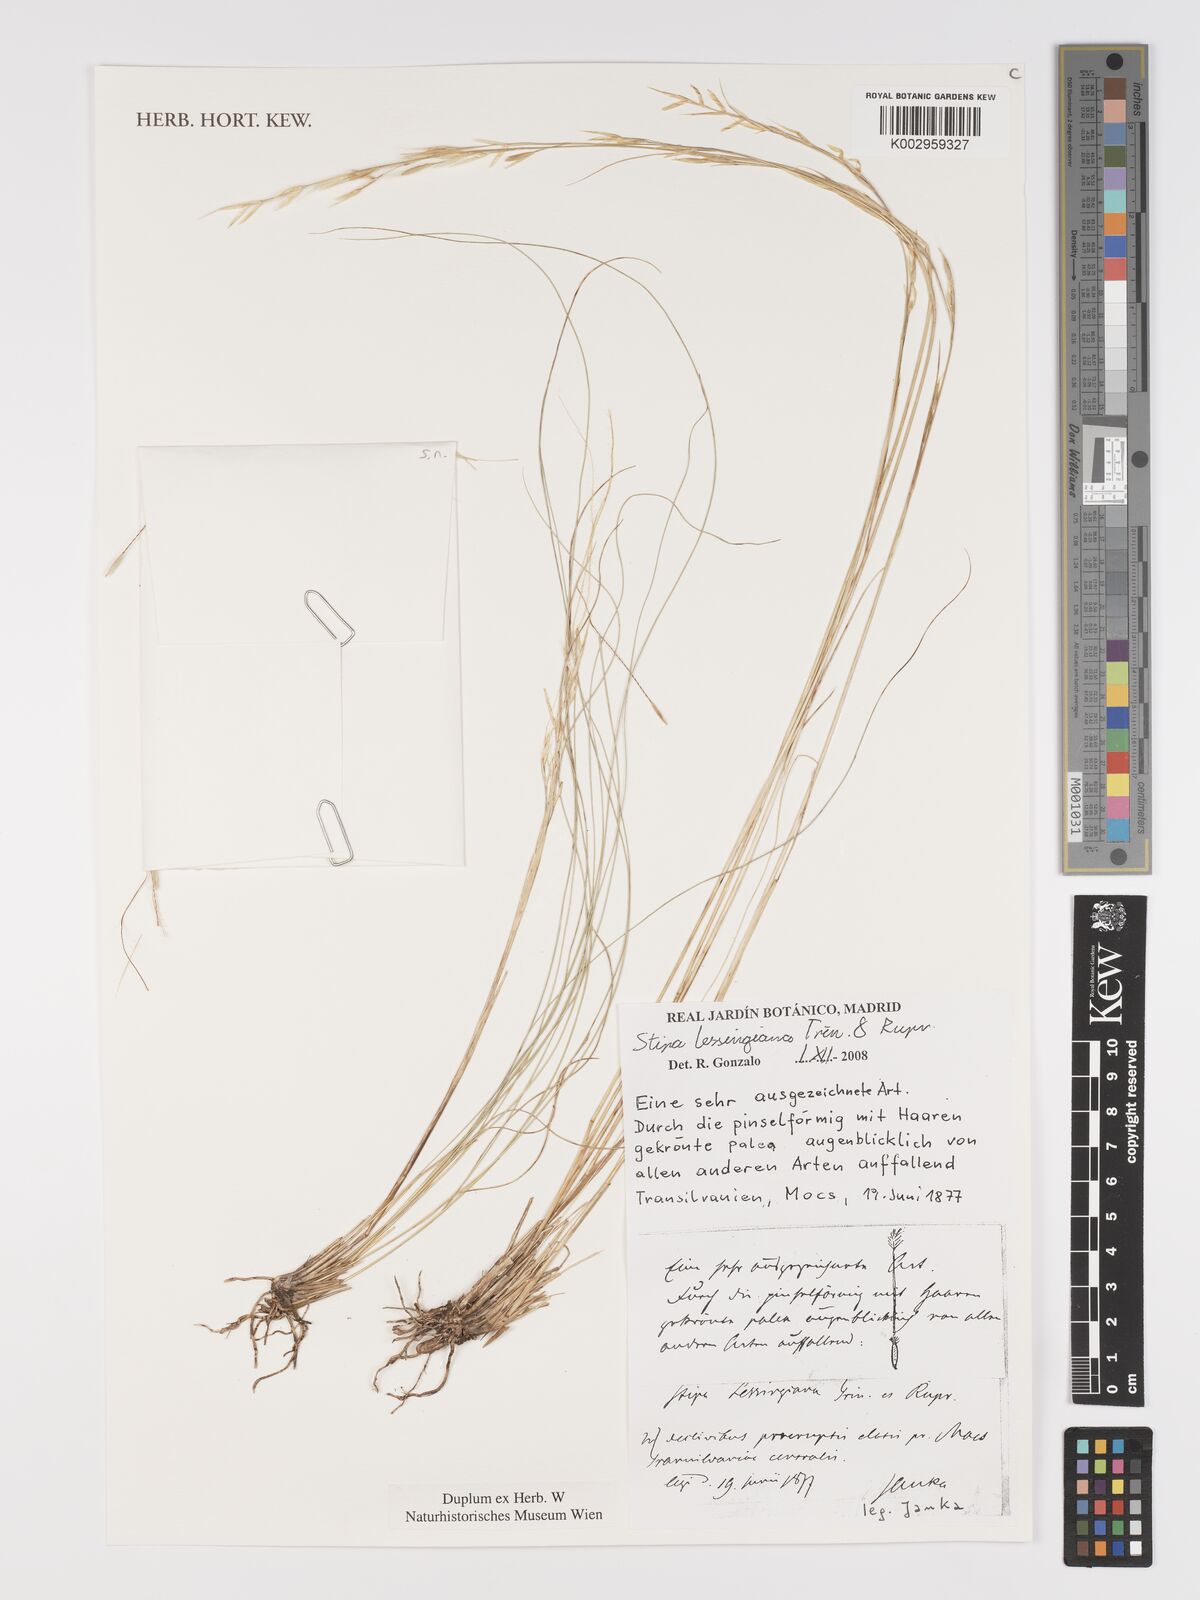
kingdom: Plantae
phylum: Tracheophyta
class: Liliopsida
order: Poales
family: Poaceae
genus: Stipa
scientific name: Stipa lessingiana
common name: Needle grass
